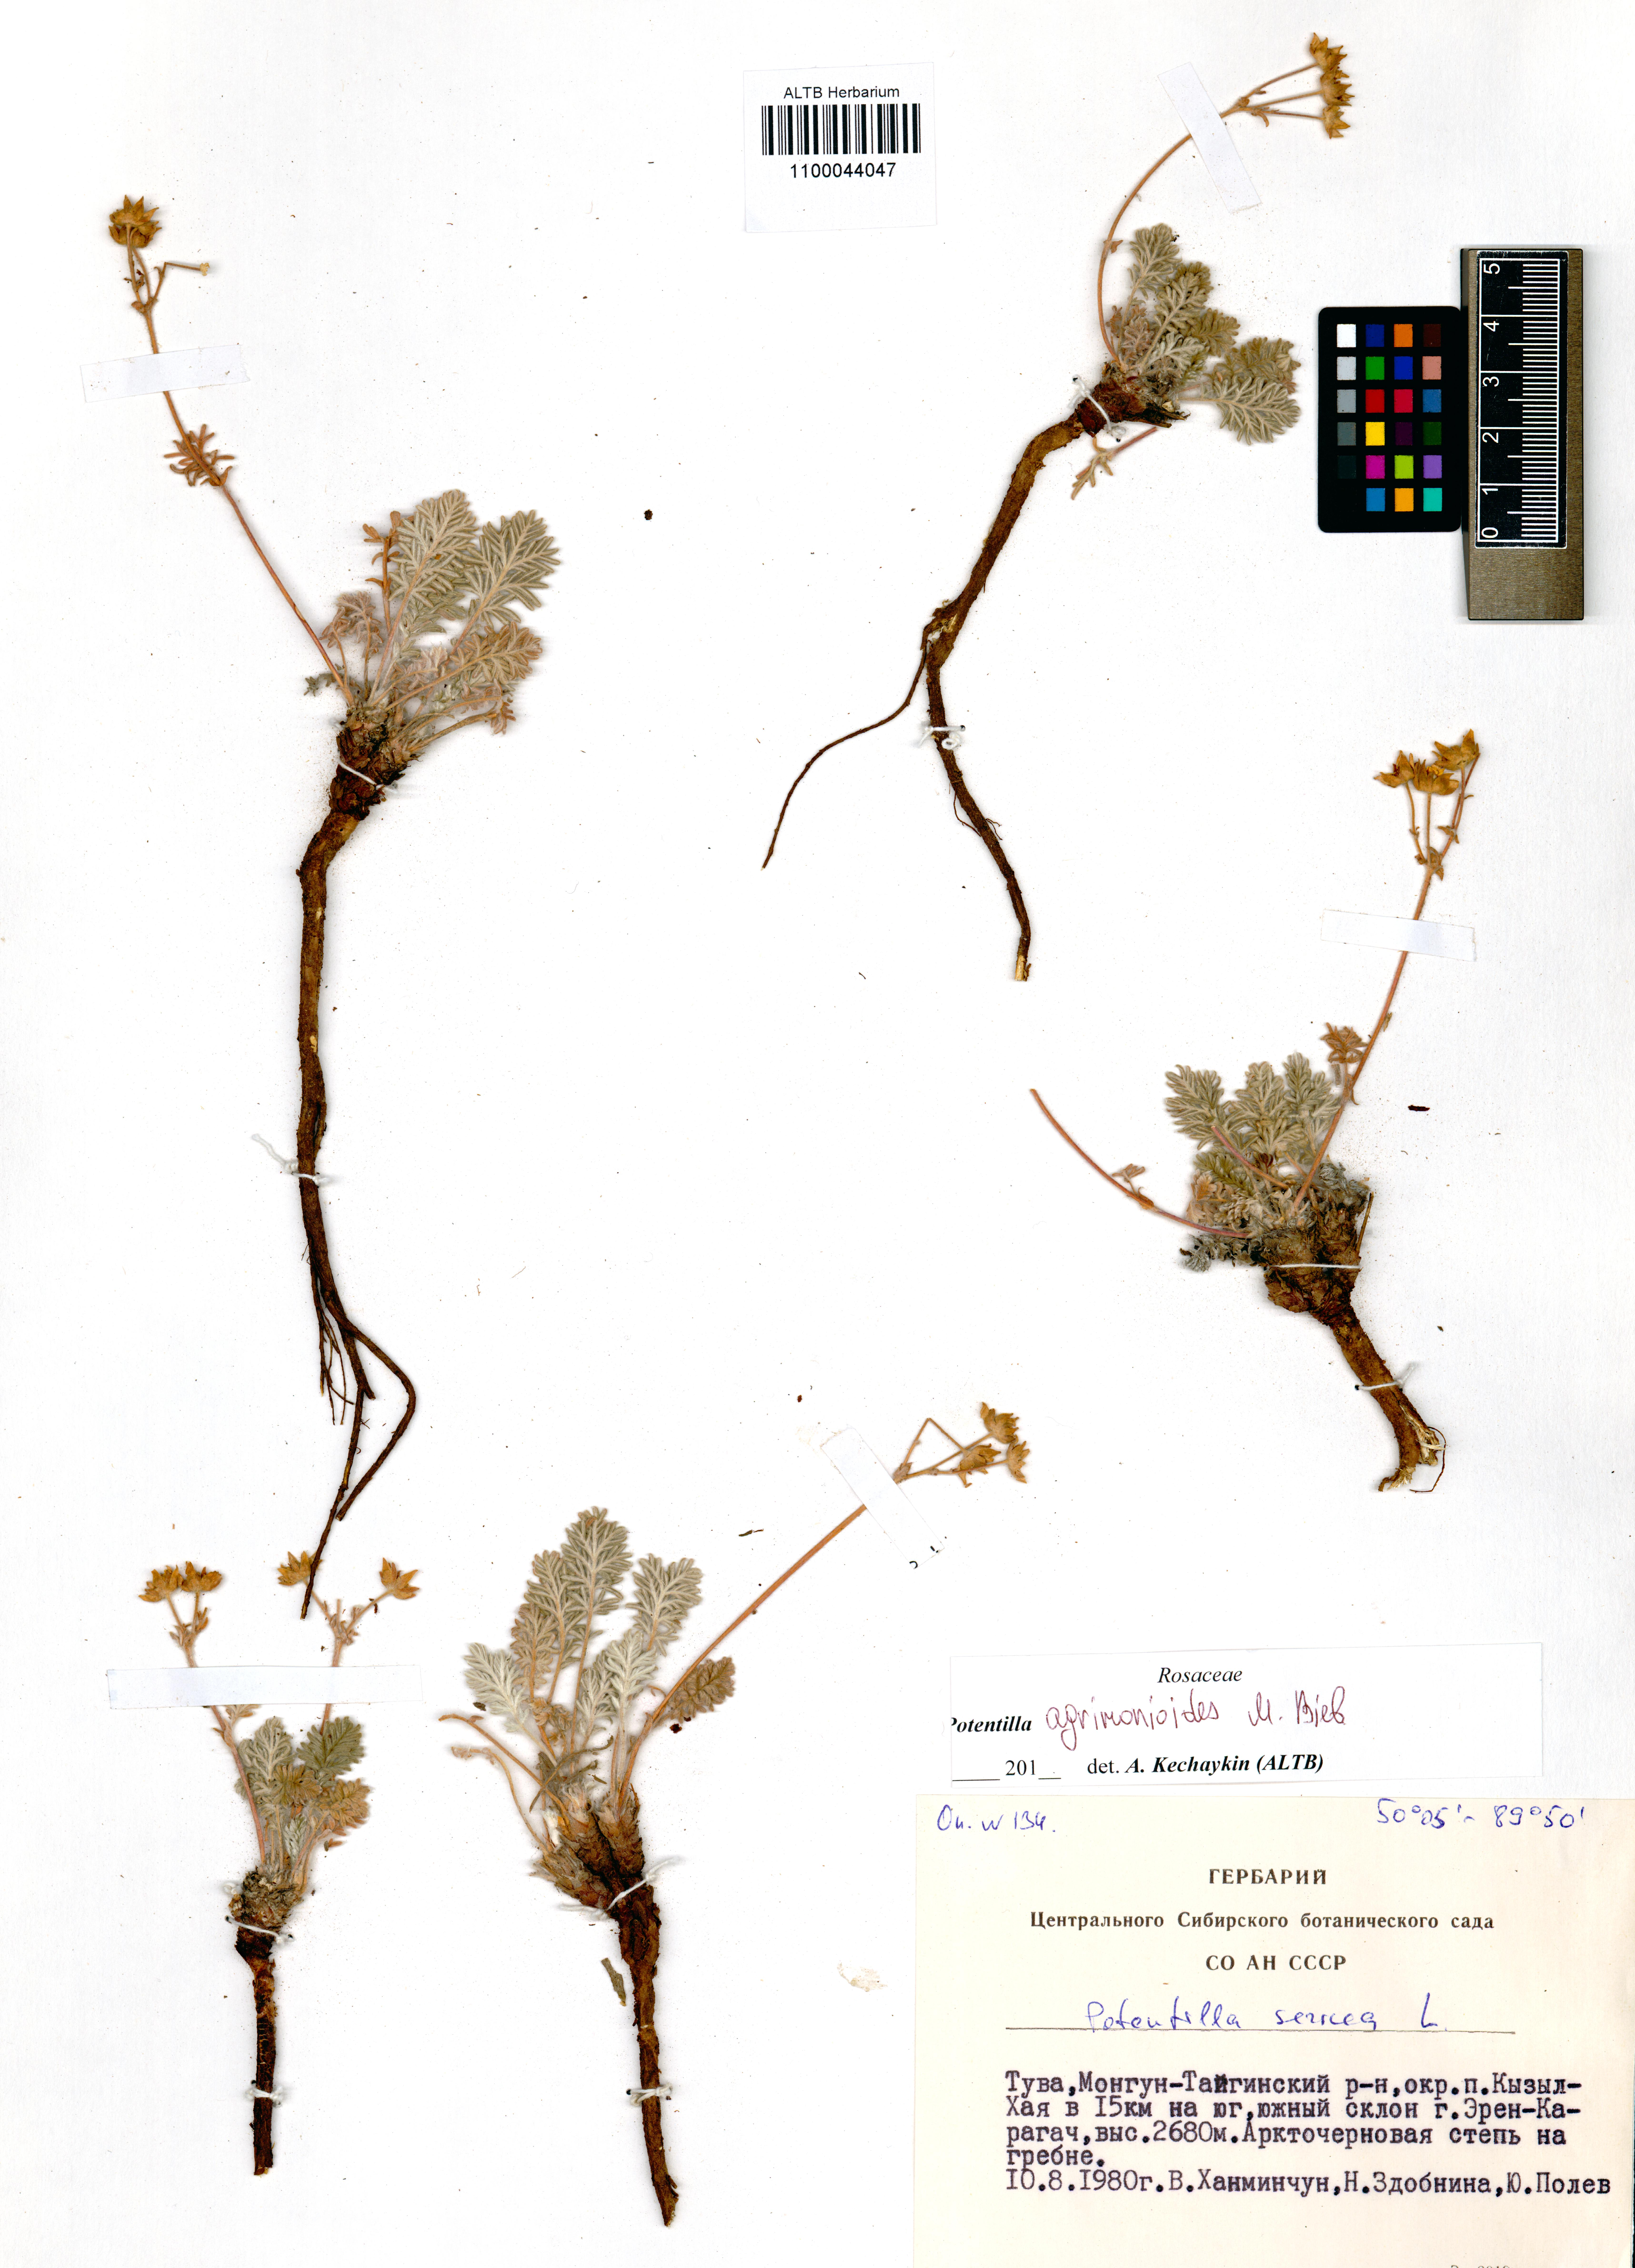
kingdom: Plantae
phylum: Tracheophyta
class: Magnoliopsida
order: Rosales
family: Rosaceae
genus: Potentilla
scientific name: Potentilla agrimonioides
